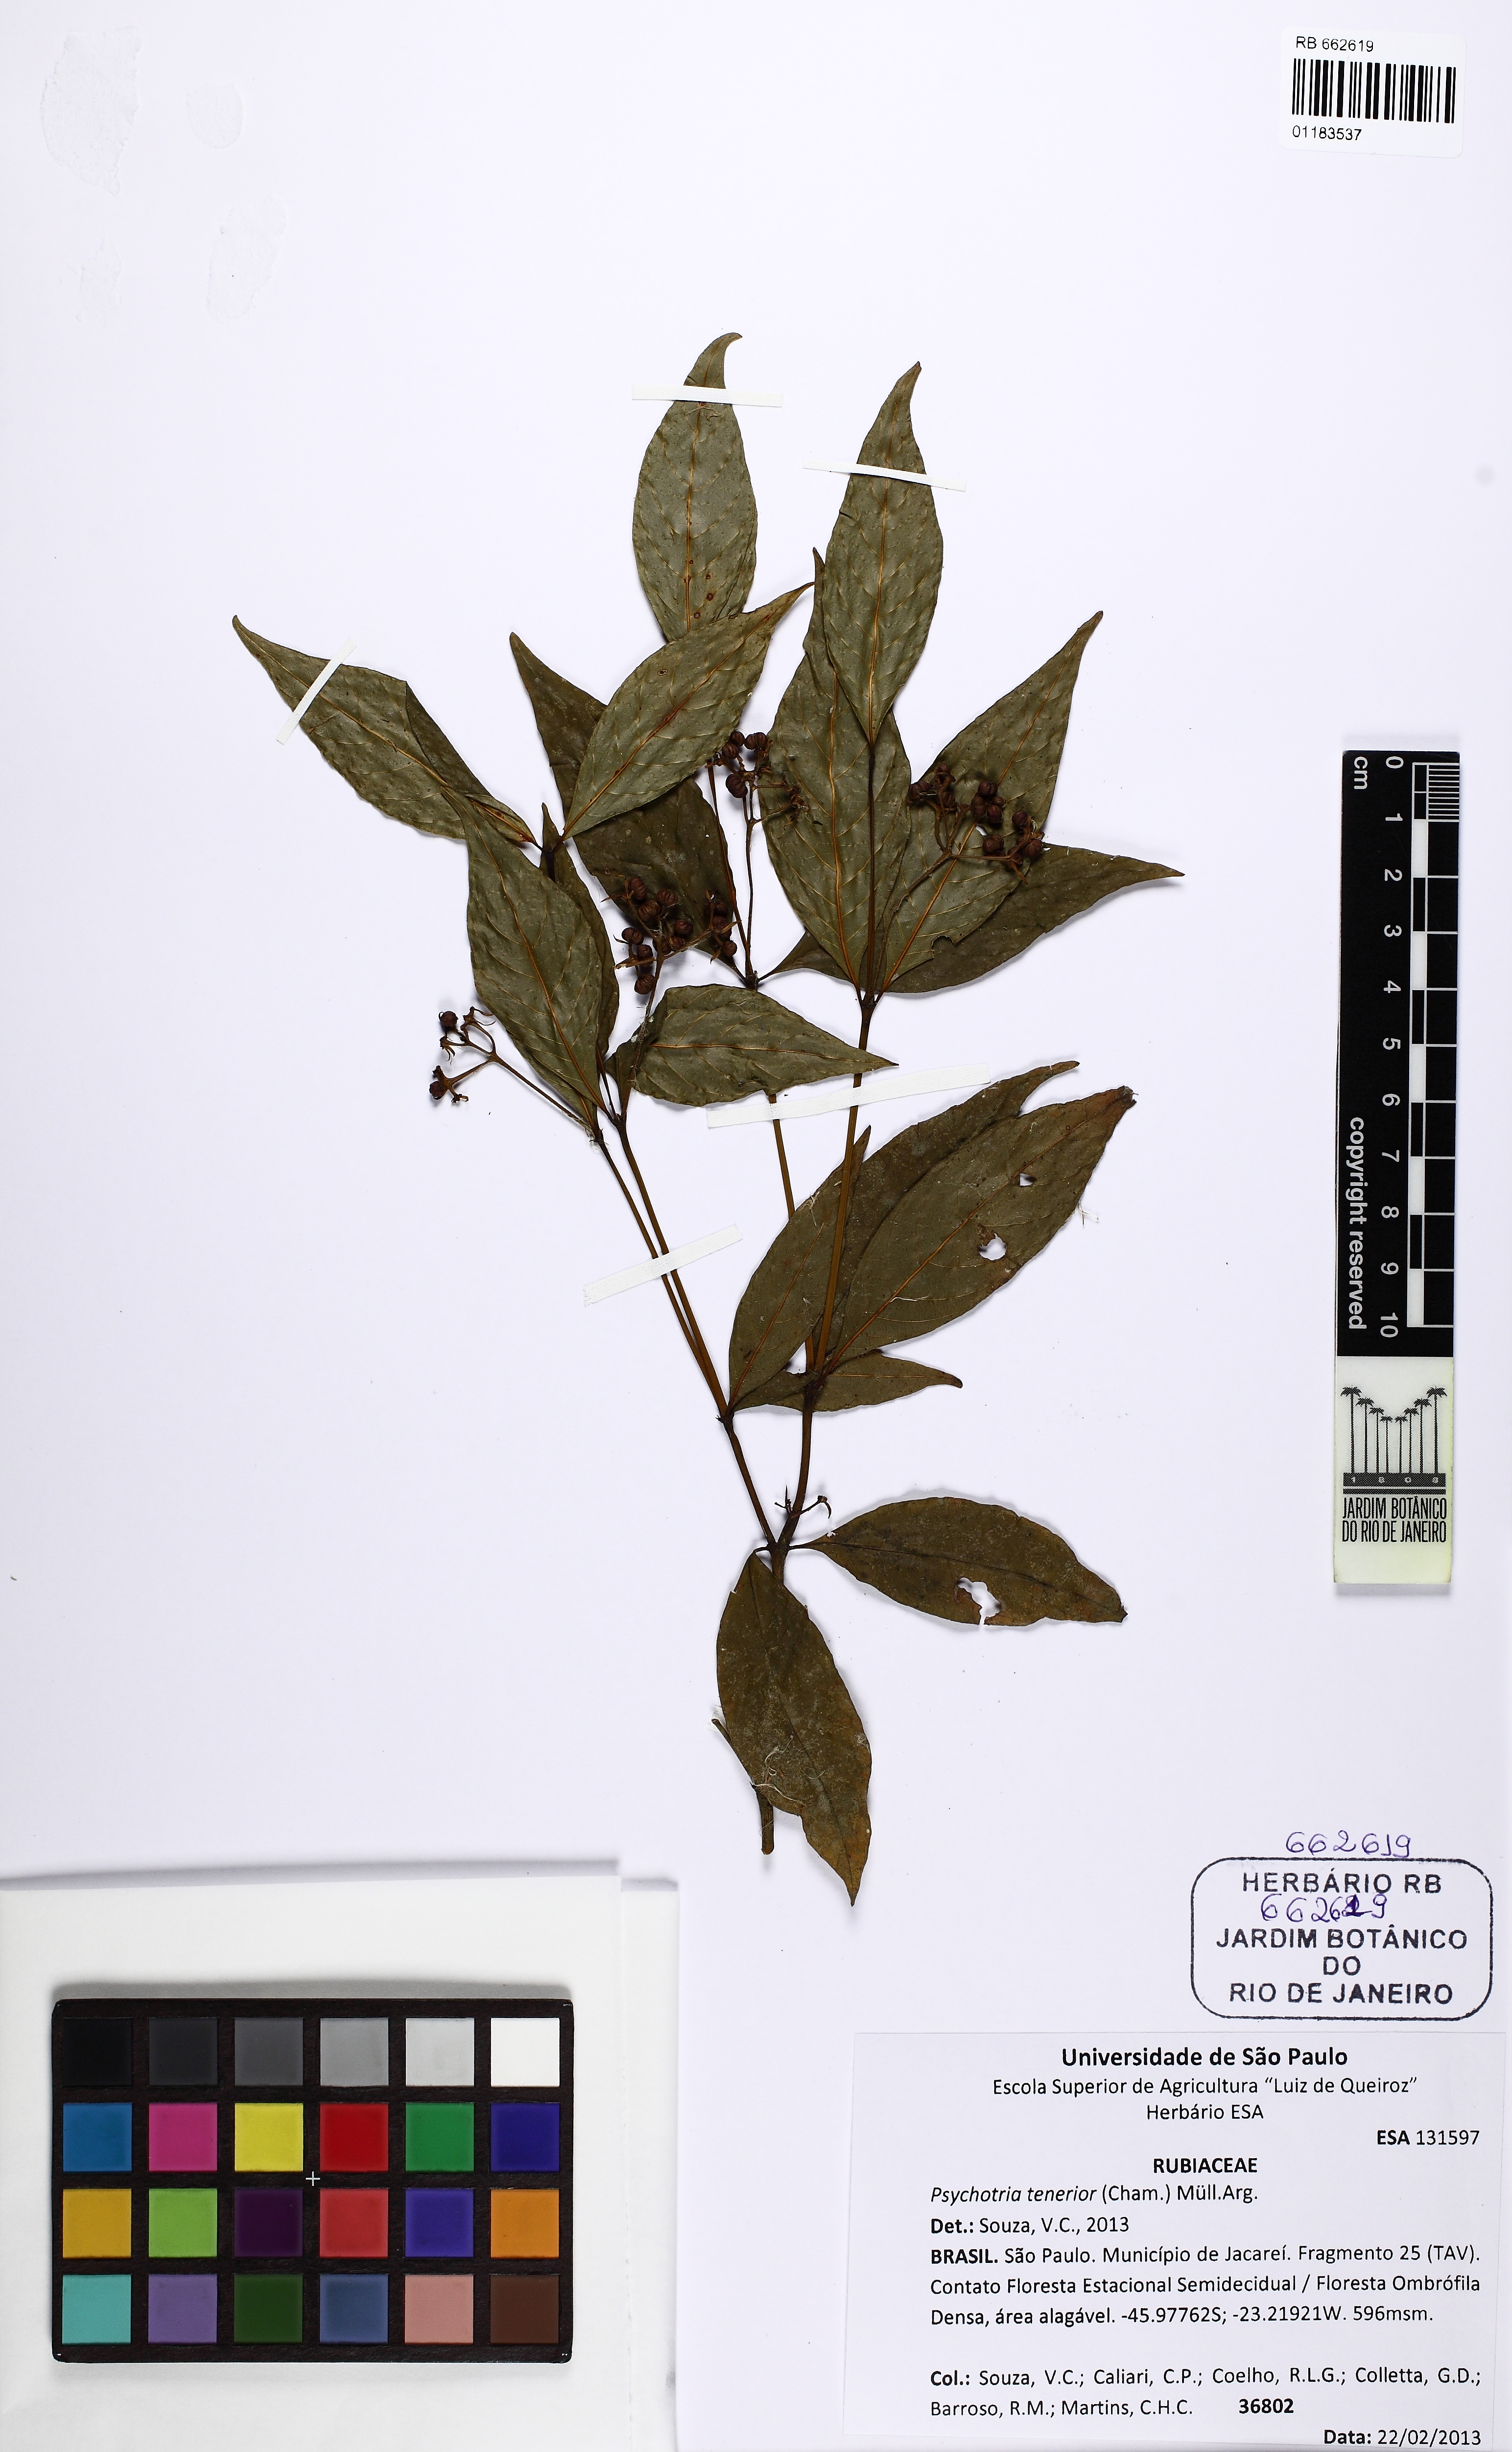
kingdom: Plantae
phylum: Tracheophyta
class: Magnoliopsida
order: Gentianales
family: Rubiaceae
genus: Palicourea
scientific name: Palicourea tenerior
